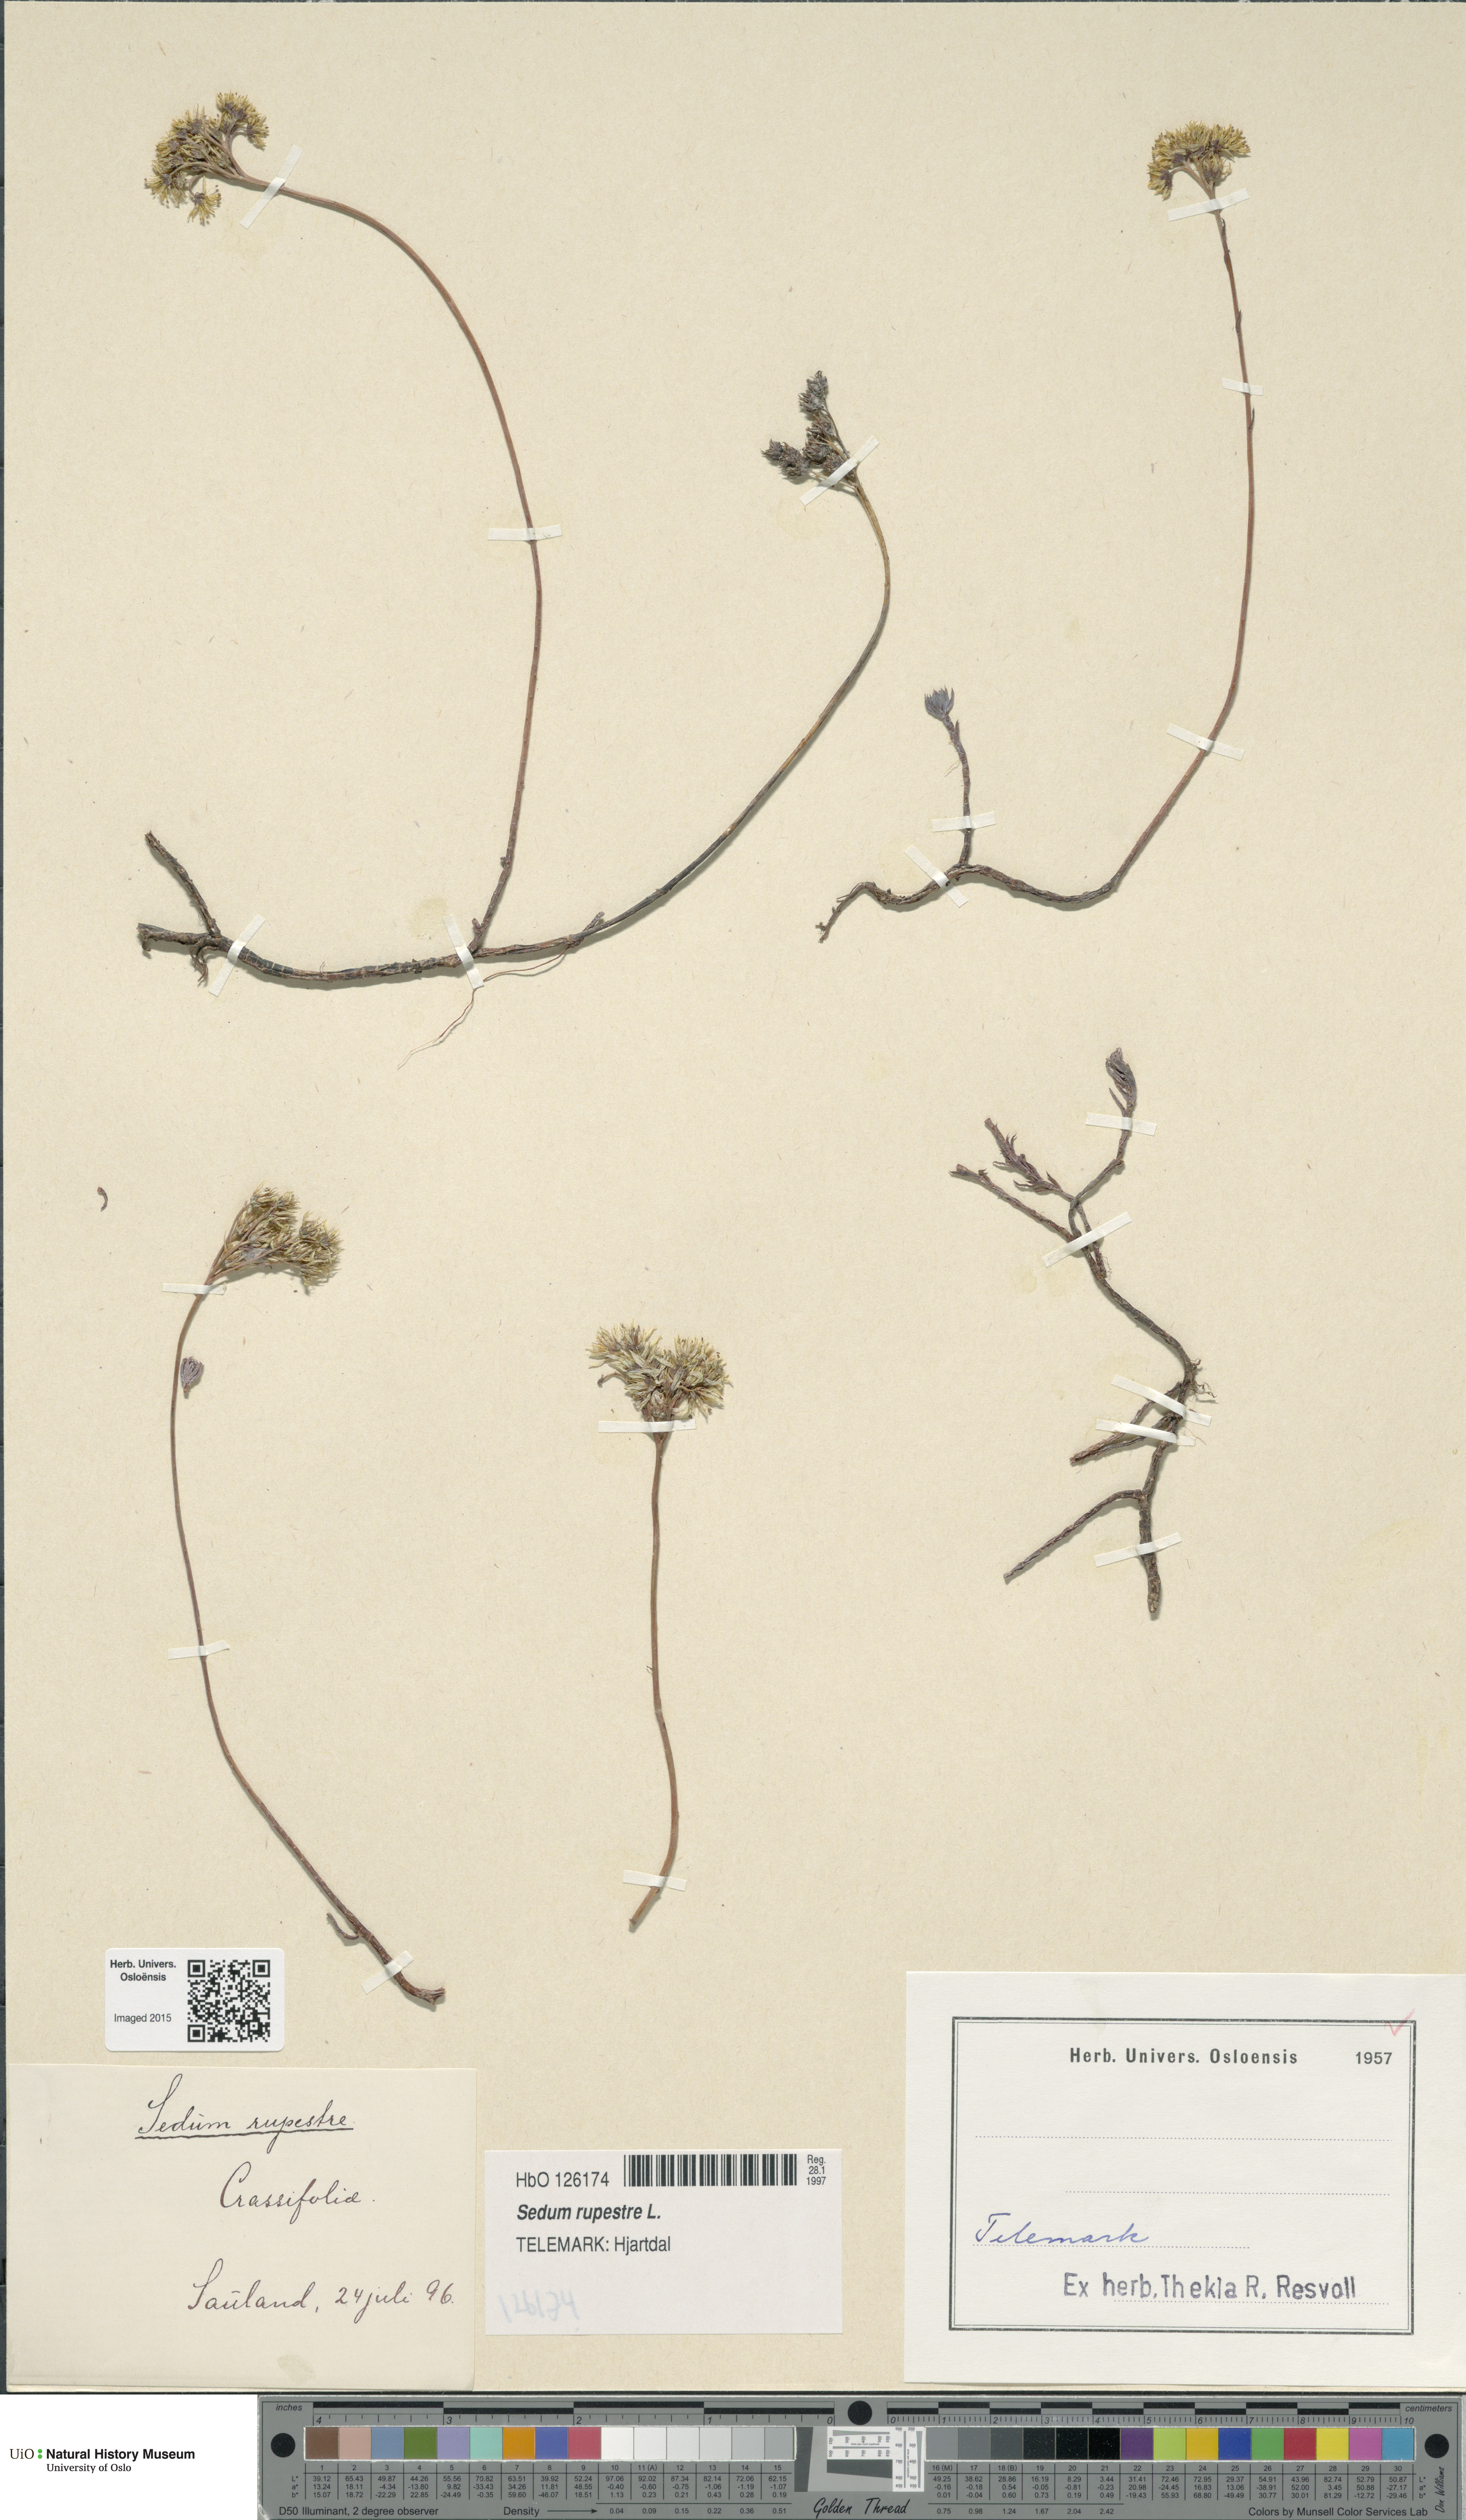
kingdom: Plantae
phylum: Tracheophyta
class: Magnoliopsida
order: Saxifragales
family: Crassulaceae
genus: Petrosedum
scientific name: Petrosedum rupestre
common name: Jenny's stonecrop
